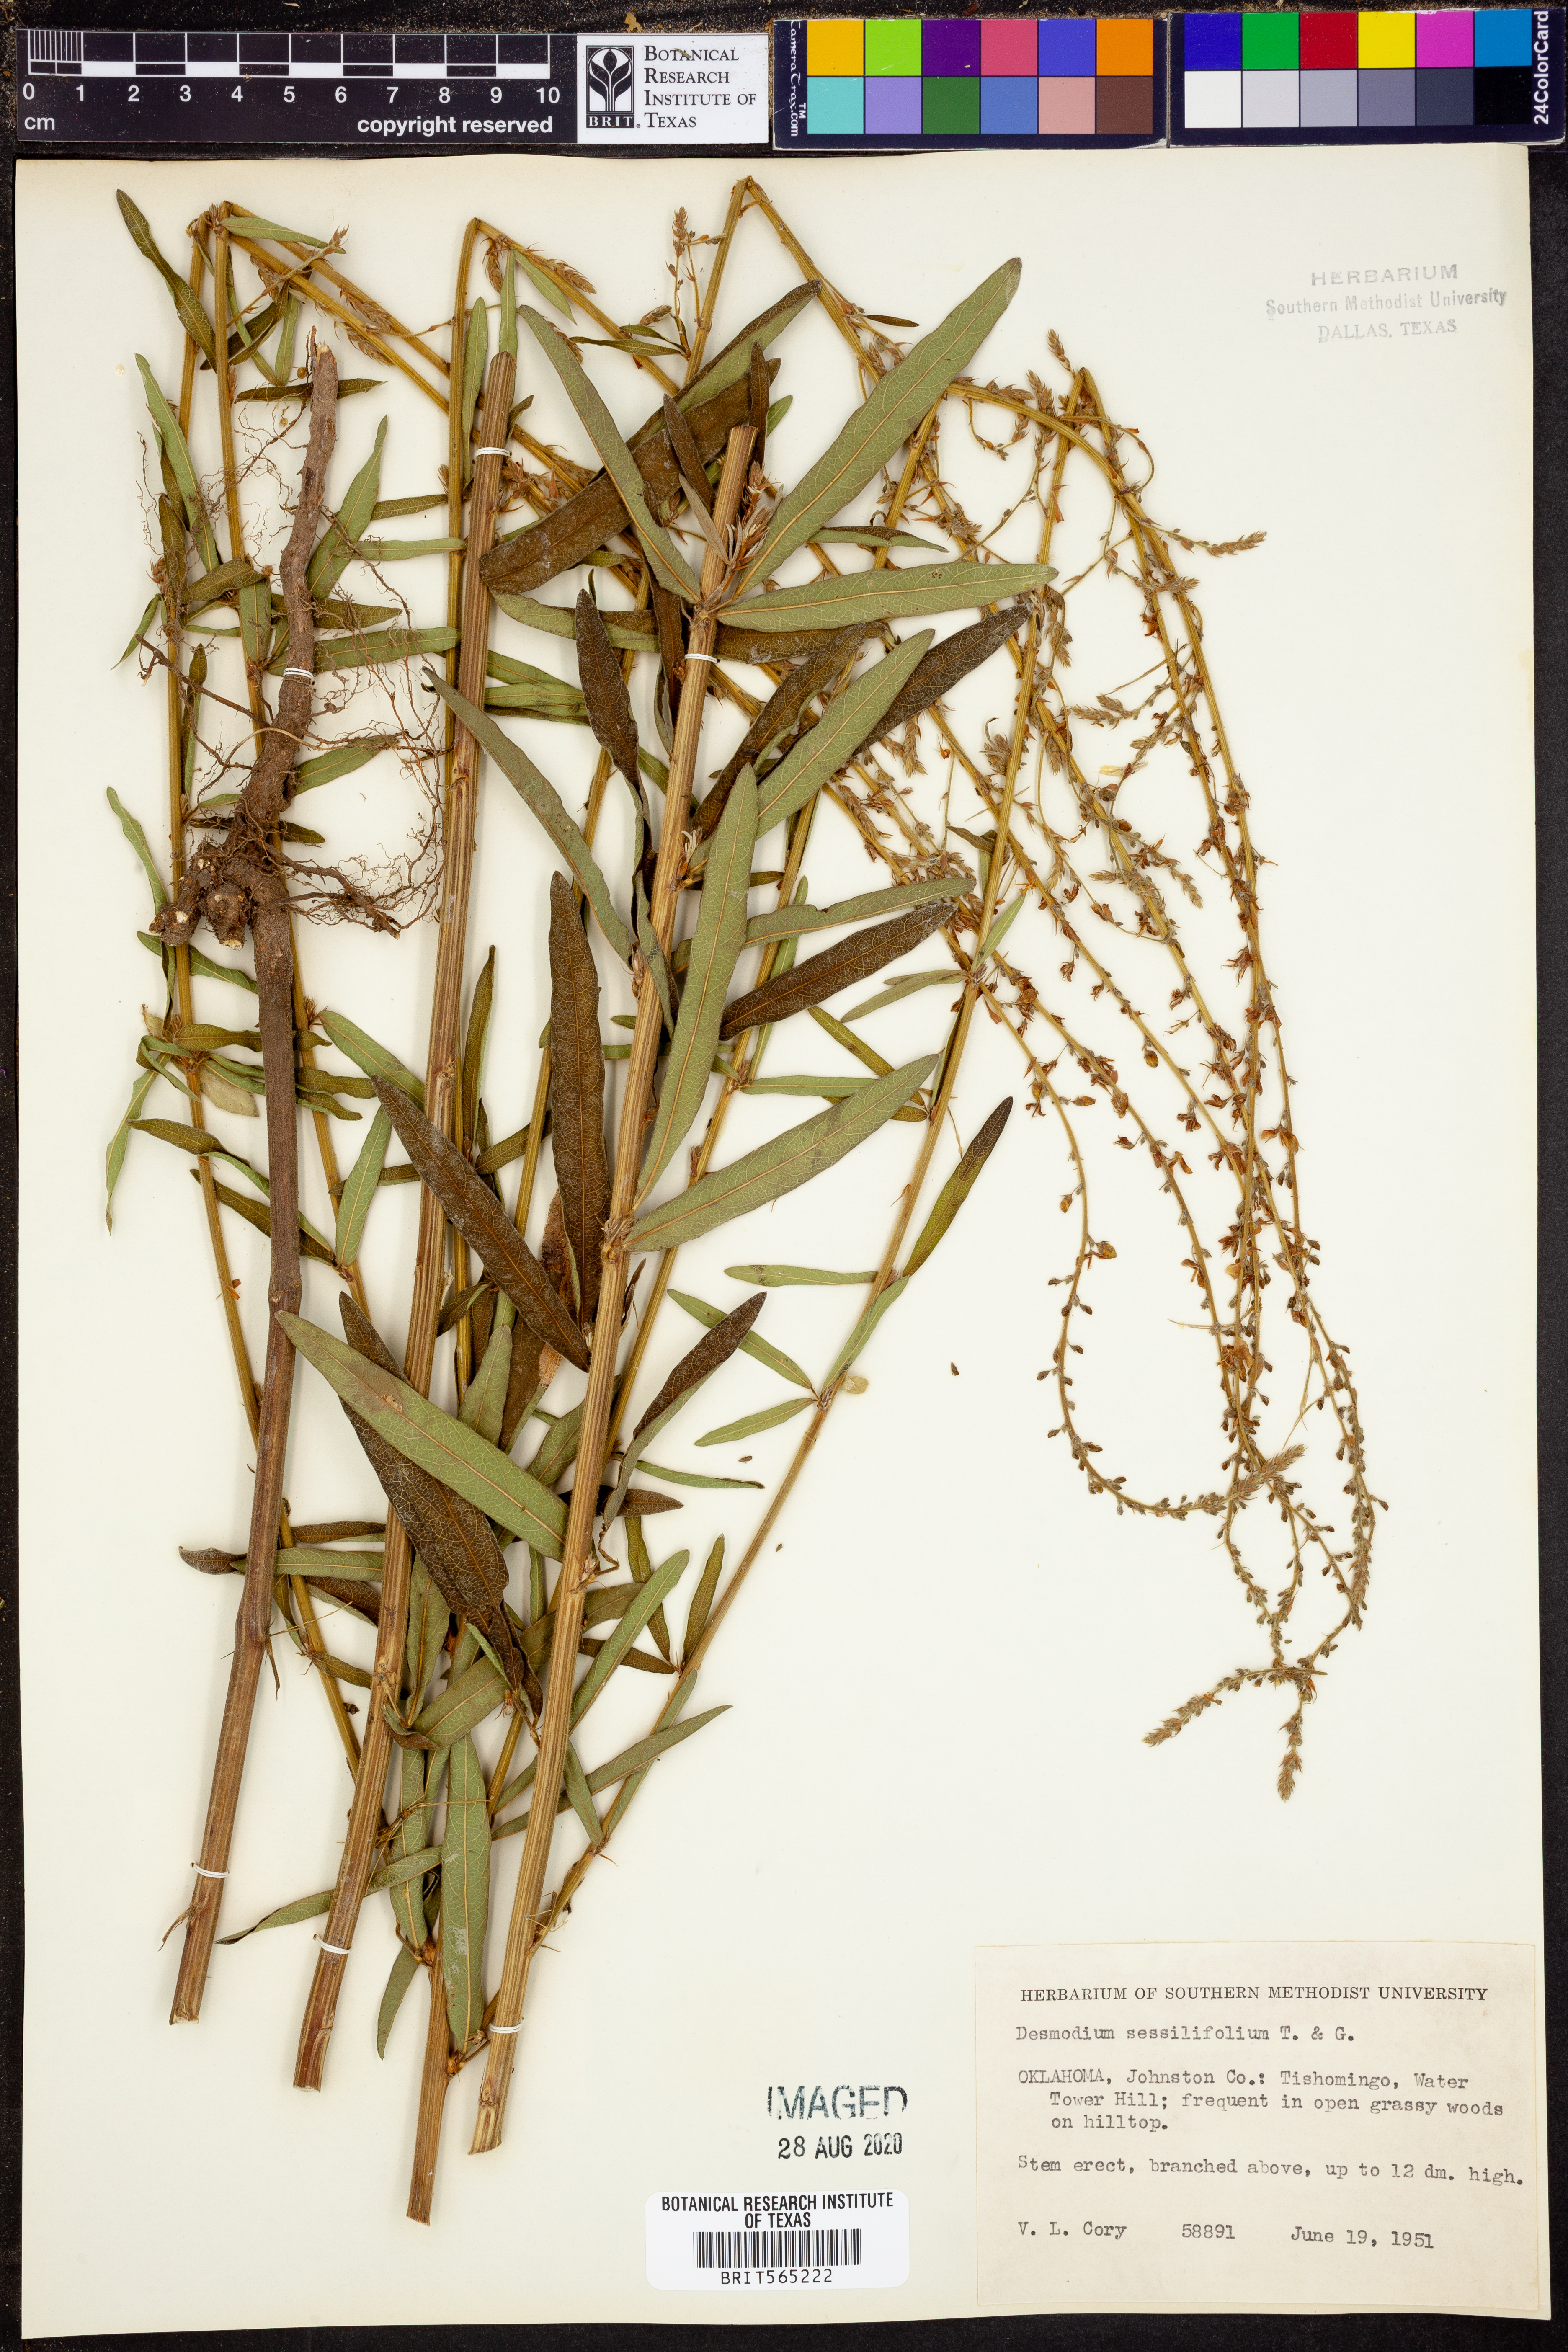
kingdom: Plantae
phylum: Tracheophyta
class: Magnoliopsida
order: Fabales
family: Fabaceae
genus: Desmodium
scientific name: Desmodium sessilifolium
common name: Sessile tick-clover
